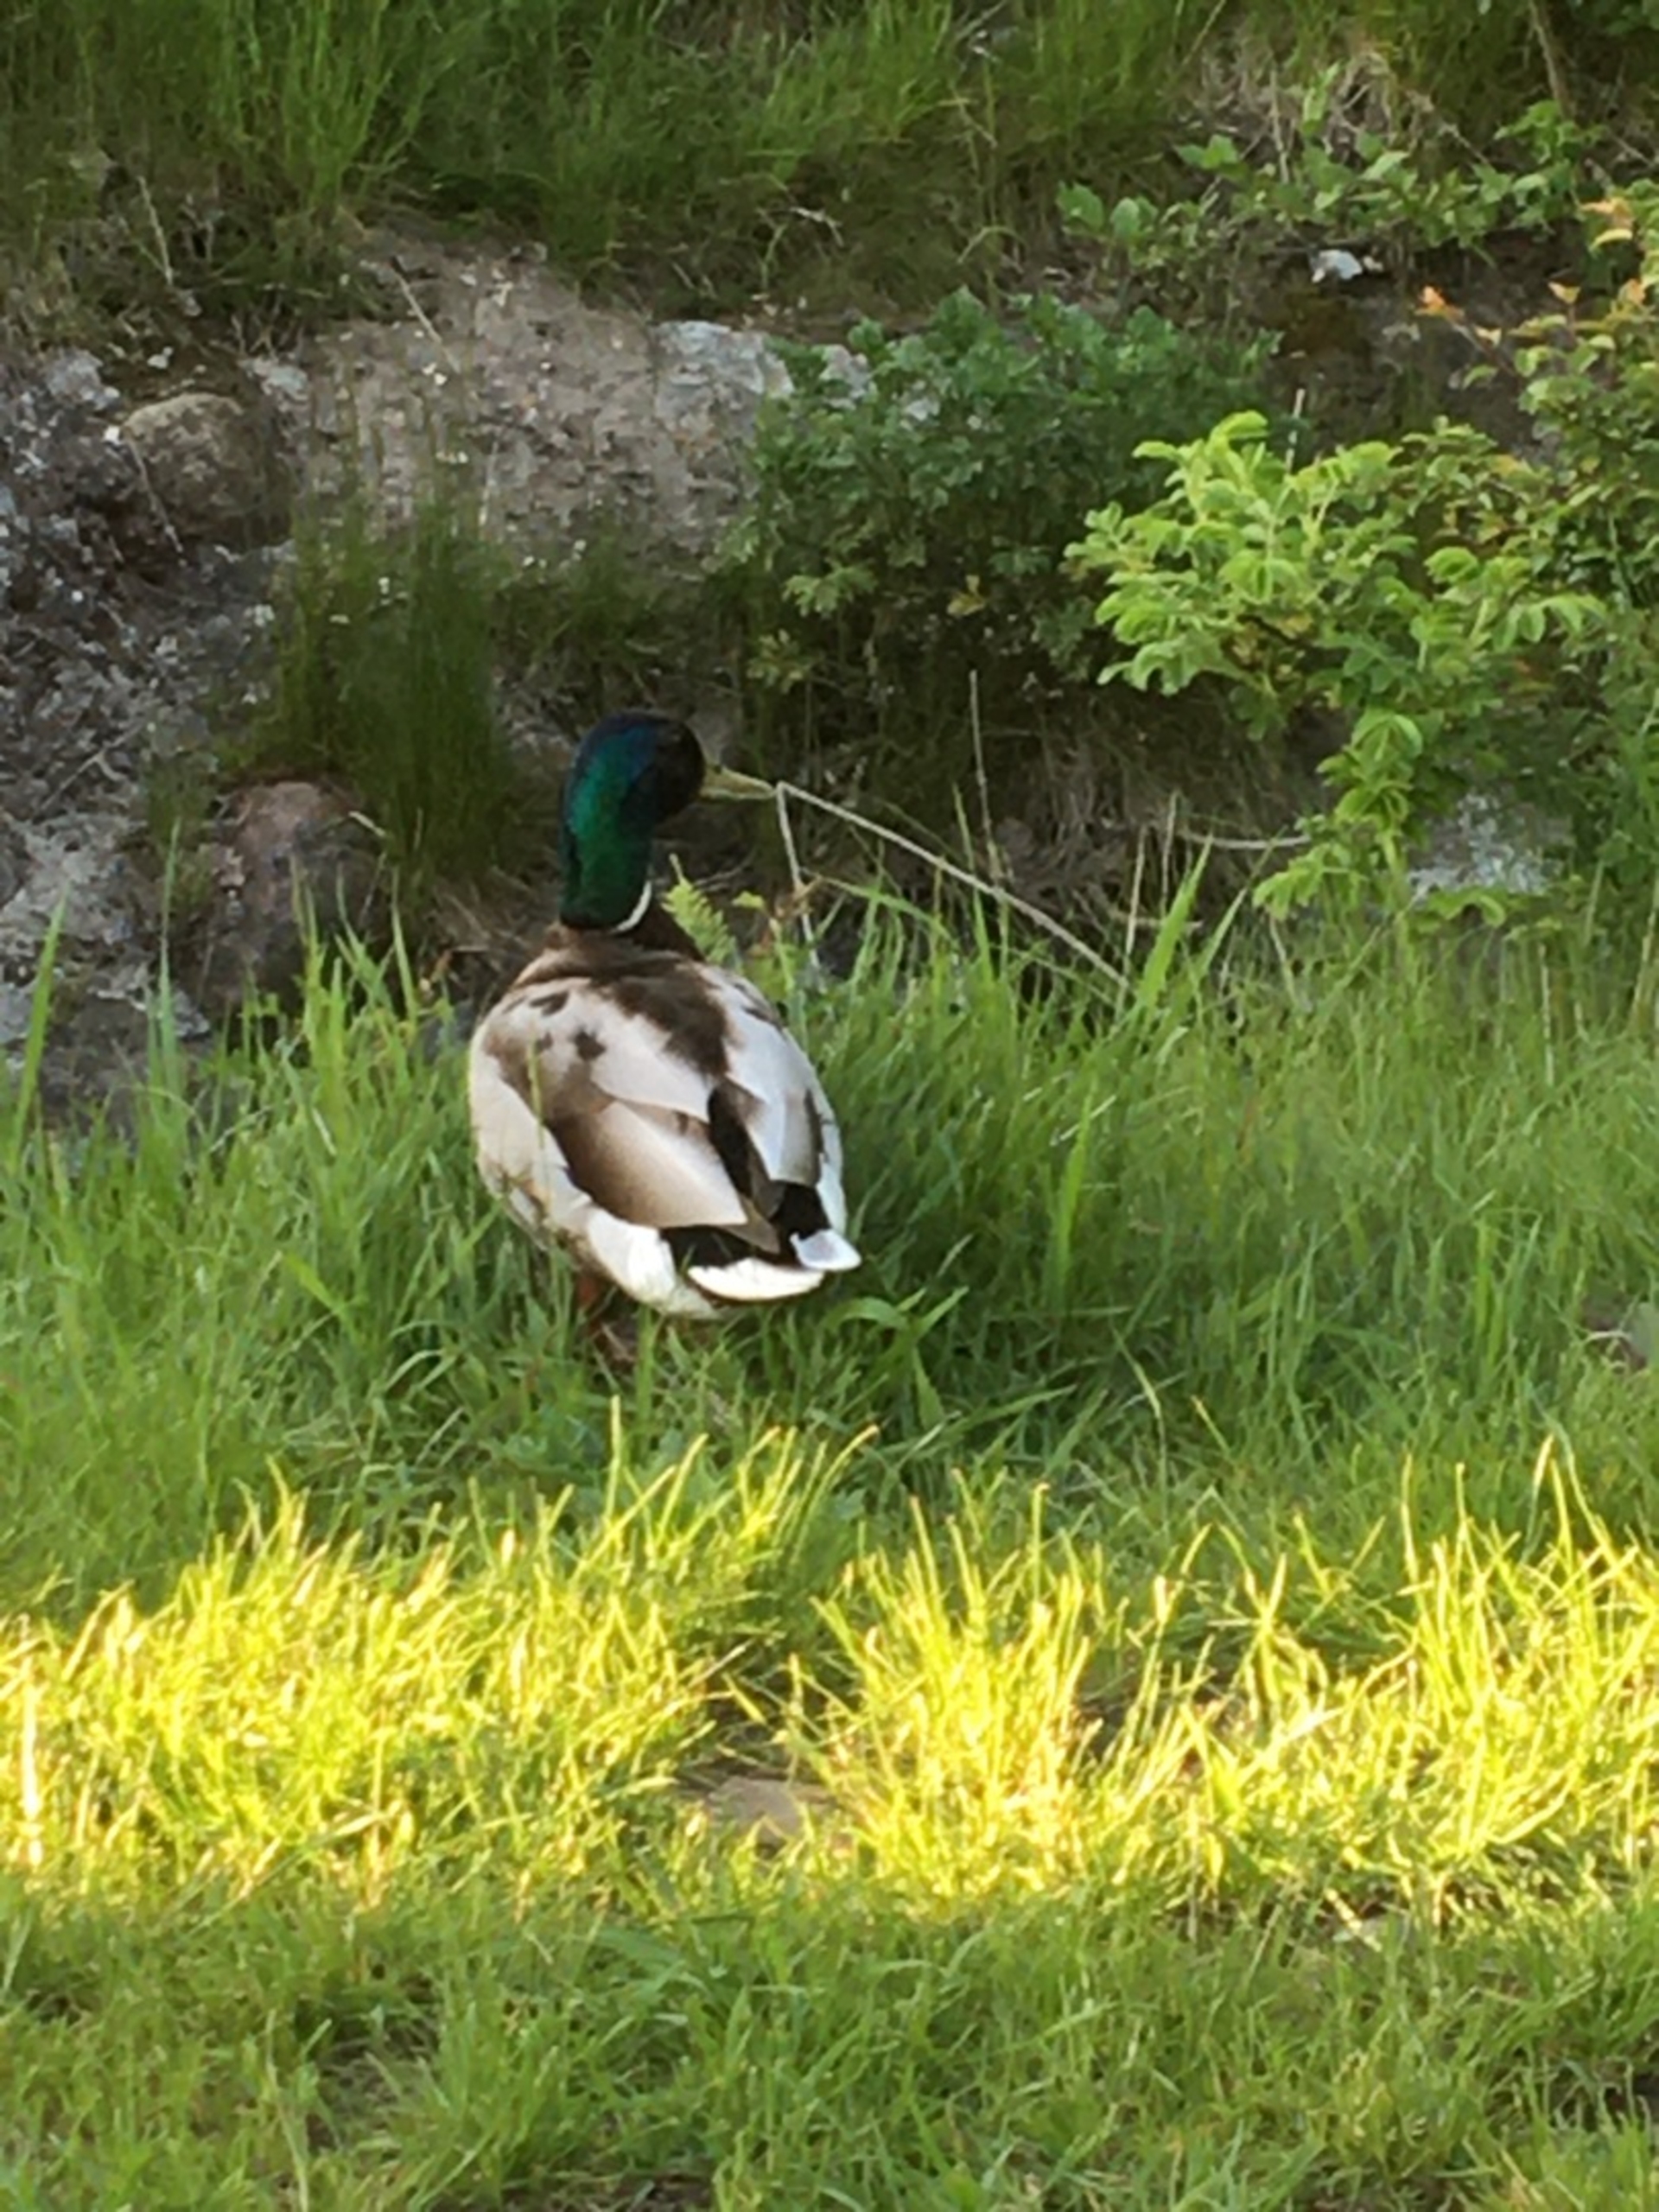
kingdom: Animalia
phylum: Chordata
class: Aves
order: Anseriformes
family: Anatidae
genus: Anas
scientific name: Anas platyrhynchos
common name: Gråand
